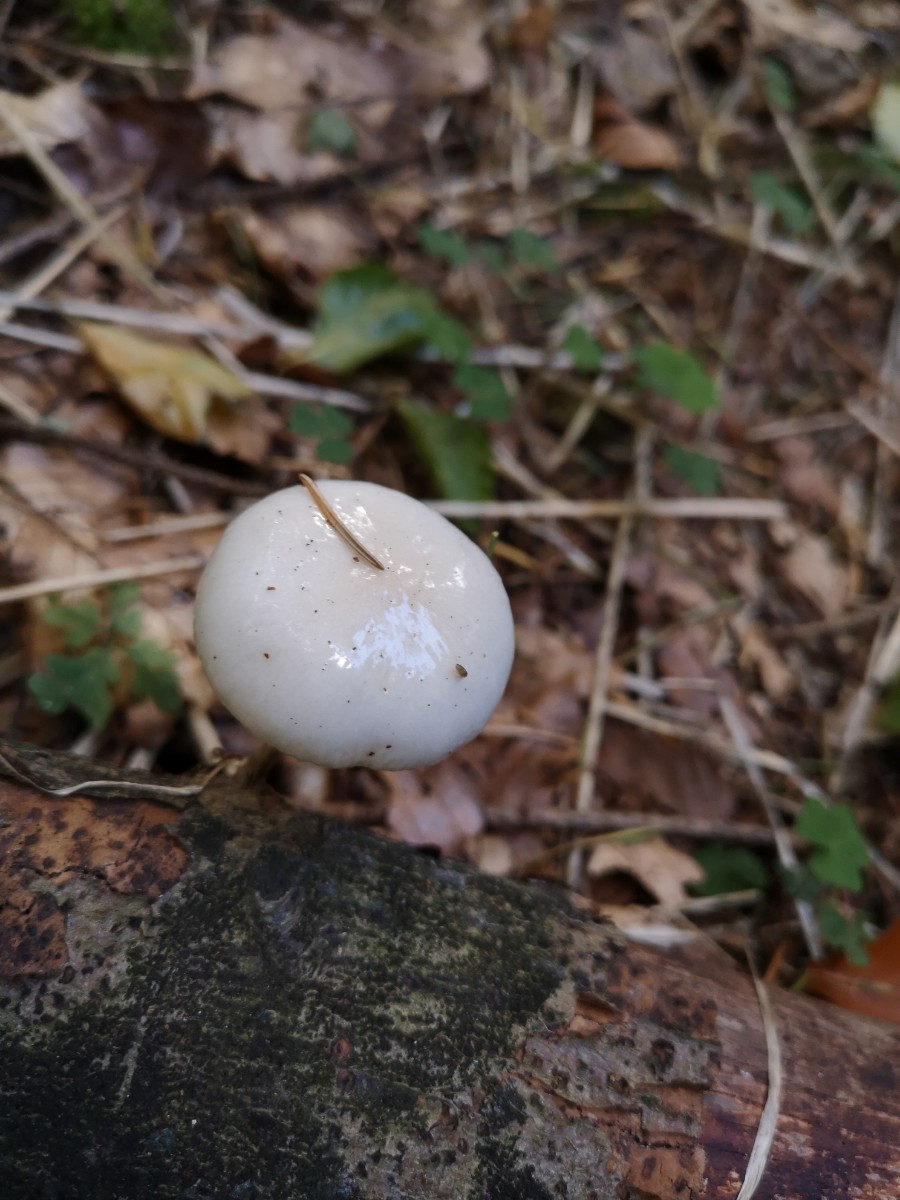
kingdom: Fungi
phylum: Basidiomycota
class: Agaricomycetes
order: Agaricales
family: Physalacriaceae
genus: Mucidula
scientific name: Mucidula mucida
